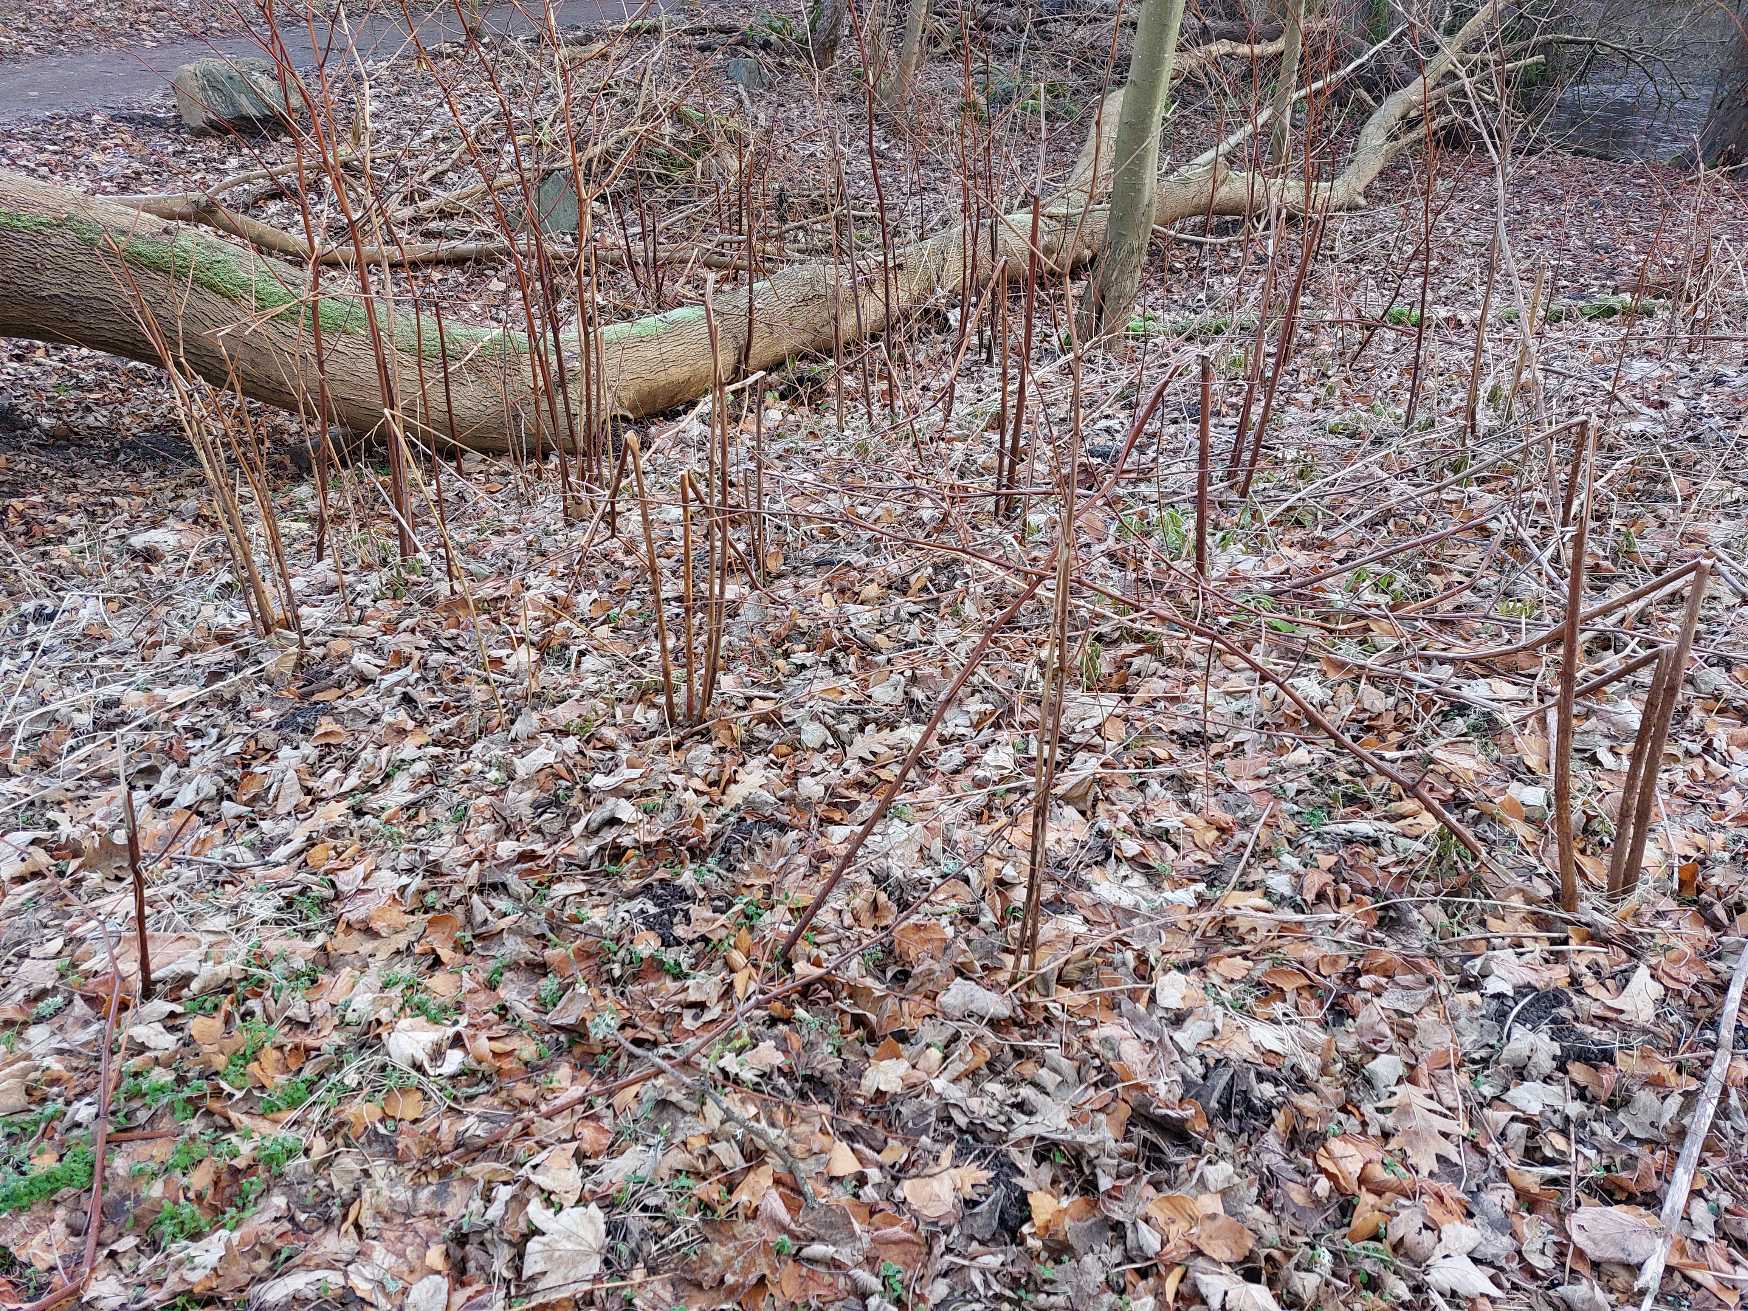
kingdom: Plantae
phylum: Tracheophyta
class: Magnoliopsida
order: Caryophyllales
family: Polygonaceae
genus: Reynoutria
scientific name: Reynoutria japonica
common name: Japan-pileurt
